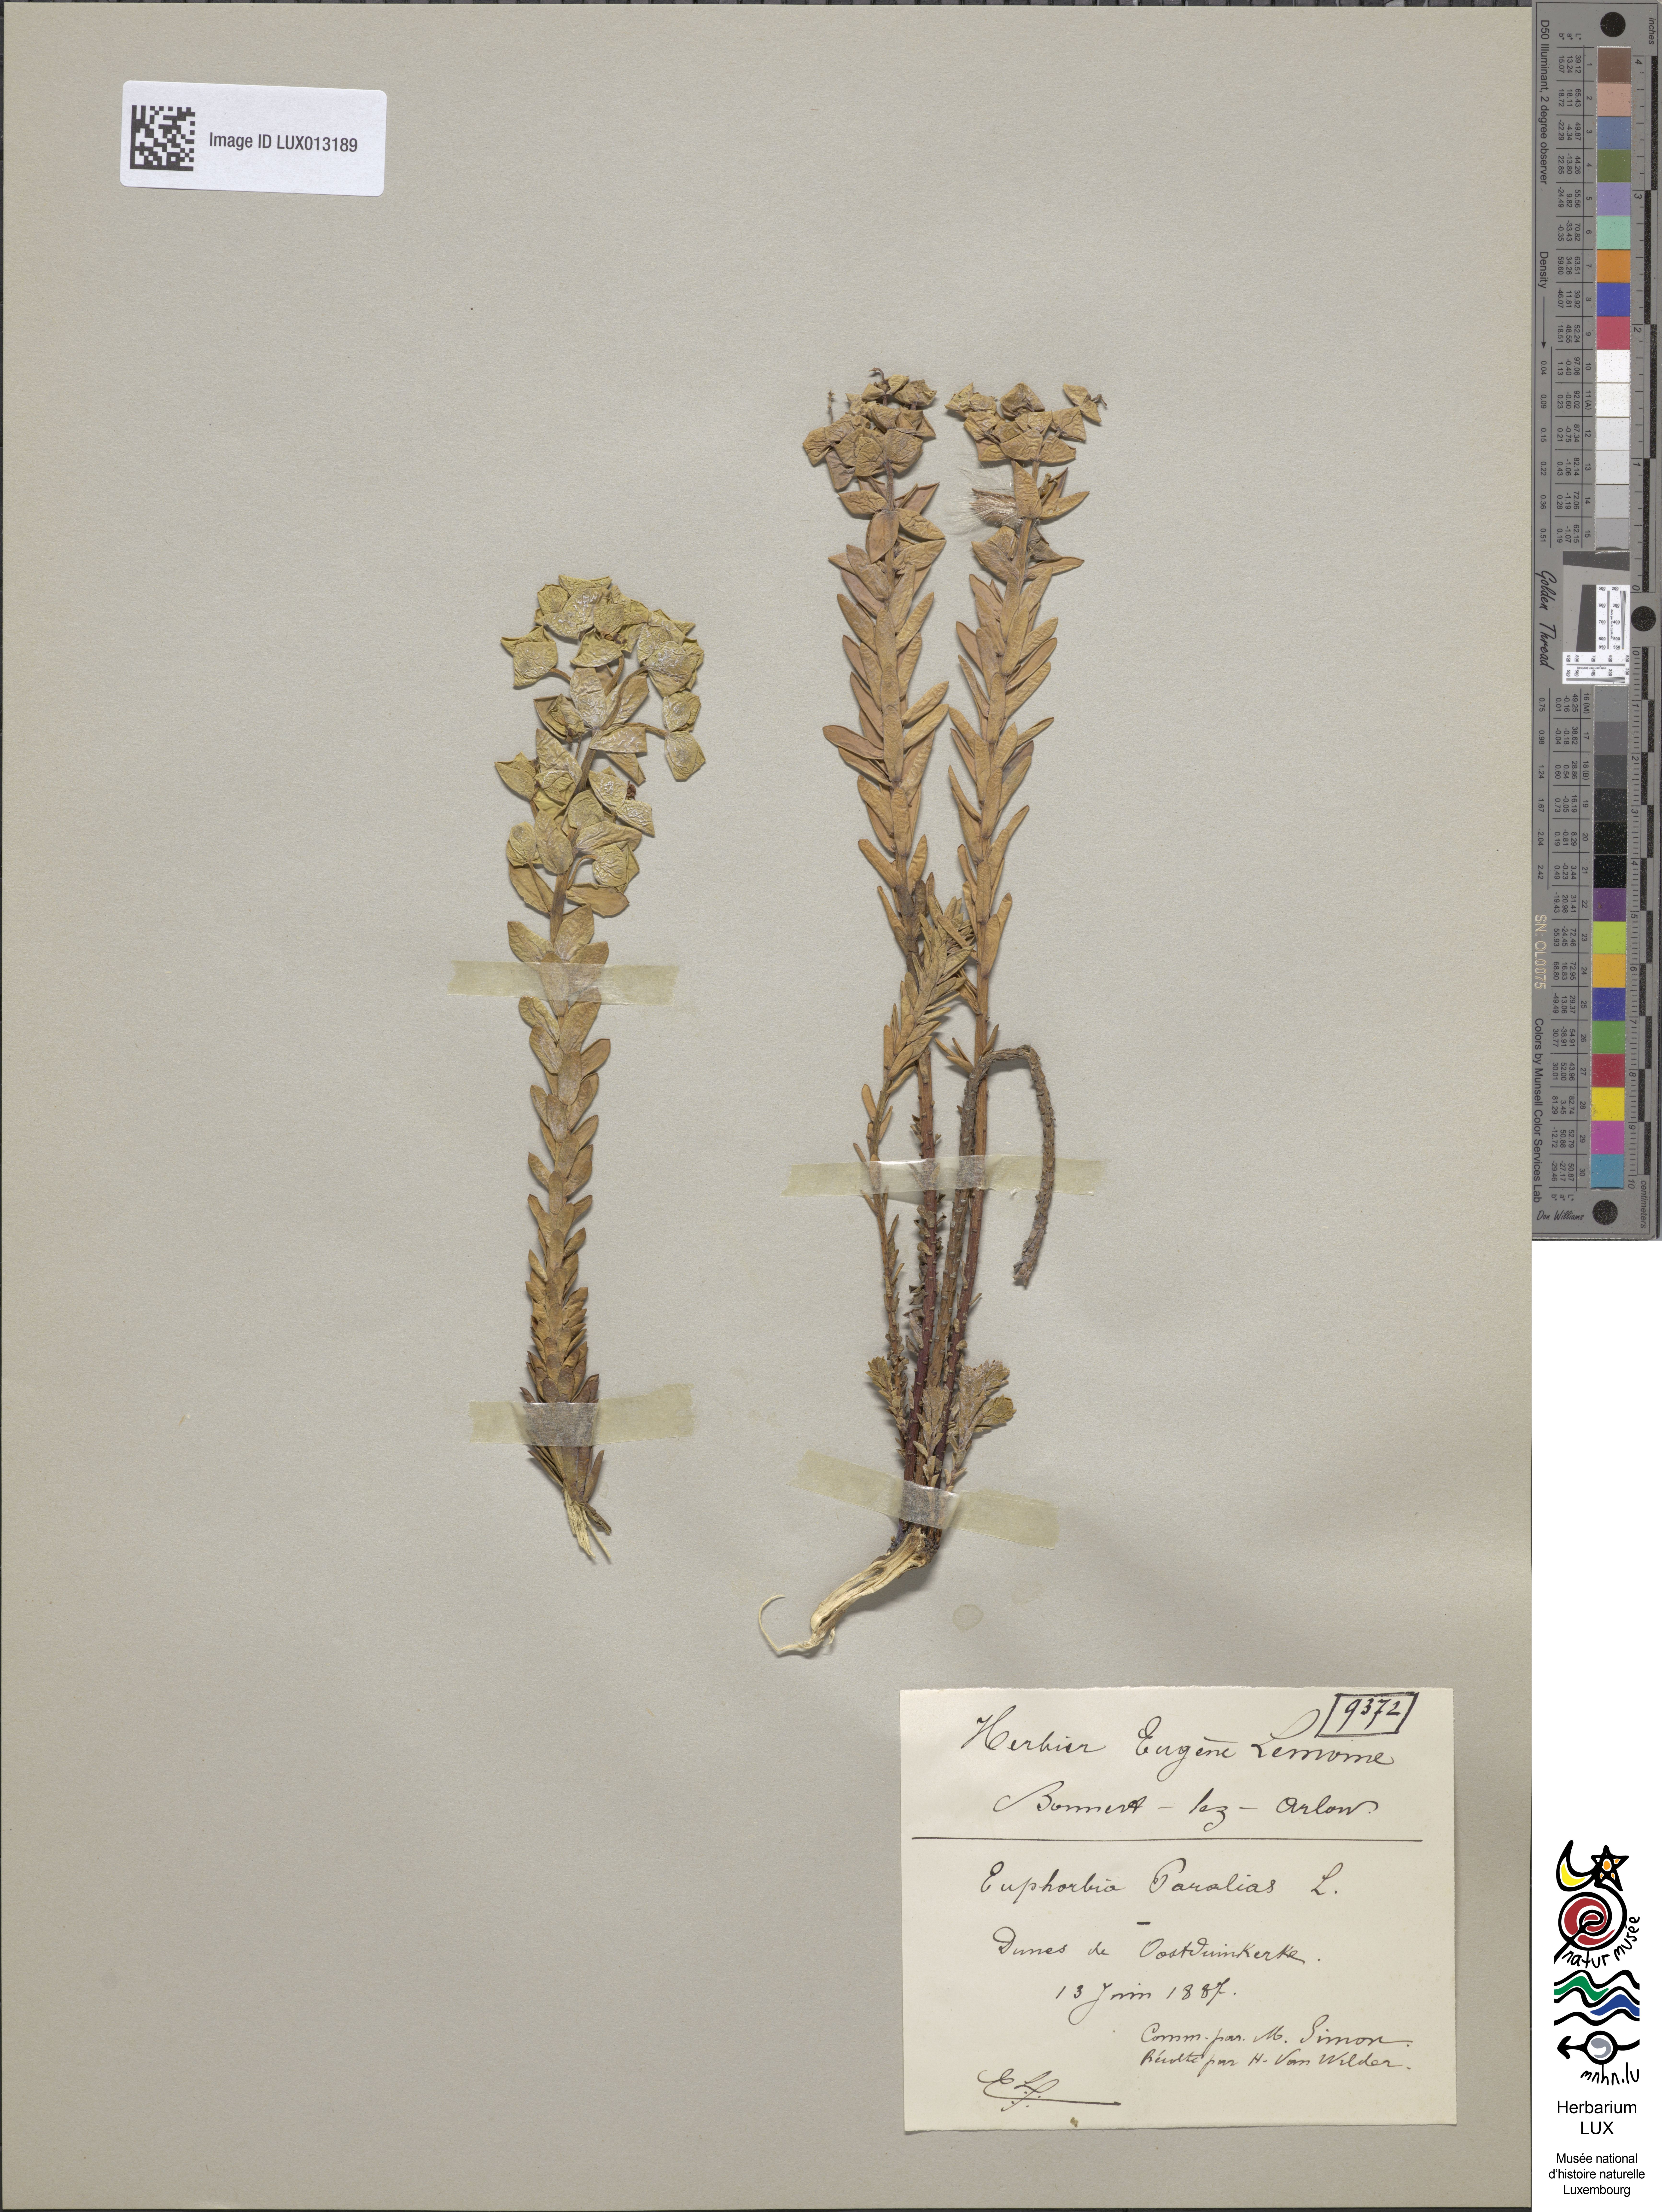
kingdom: Plantae
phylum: Tracheophyta
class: Magnoliopsida
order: Malpighiales
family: Euphorbiaceae
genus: Euphorbia
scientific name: Euphorbia paralias
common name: Sea spurge
